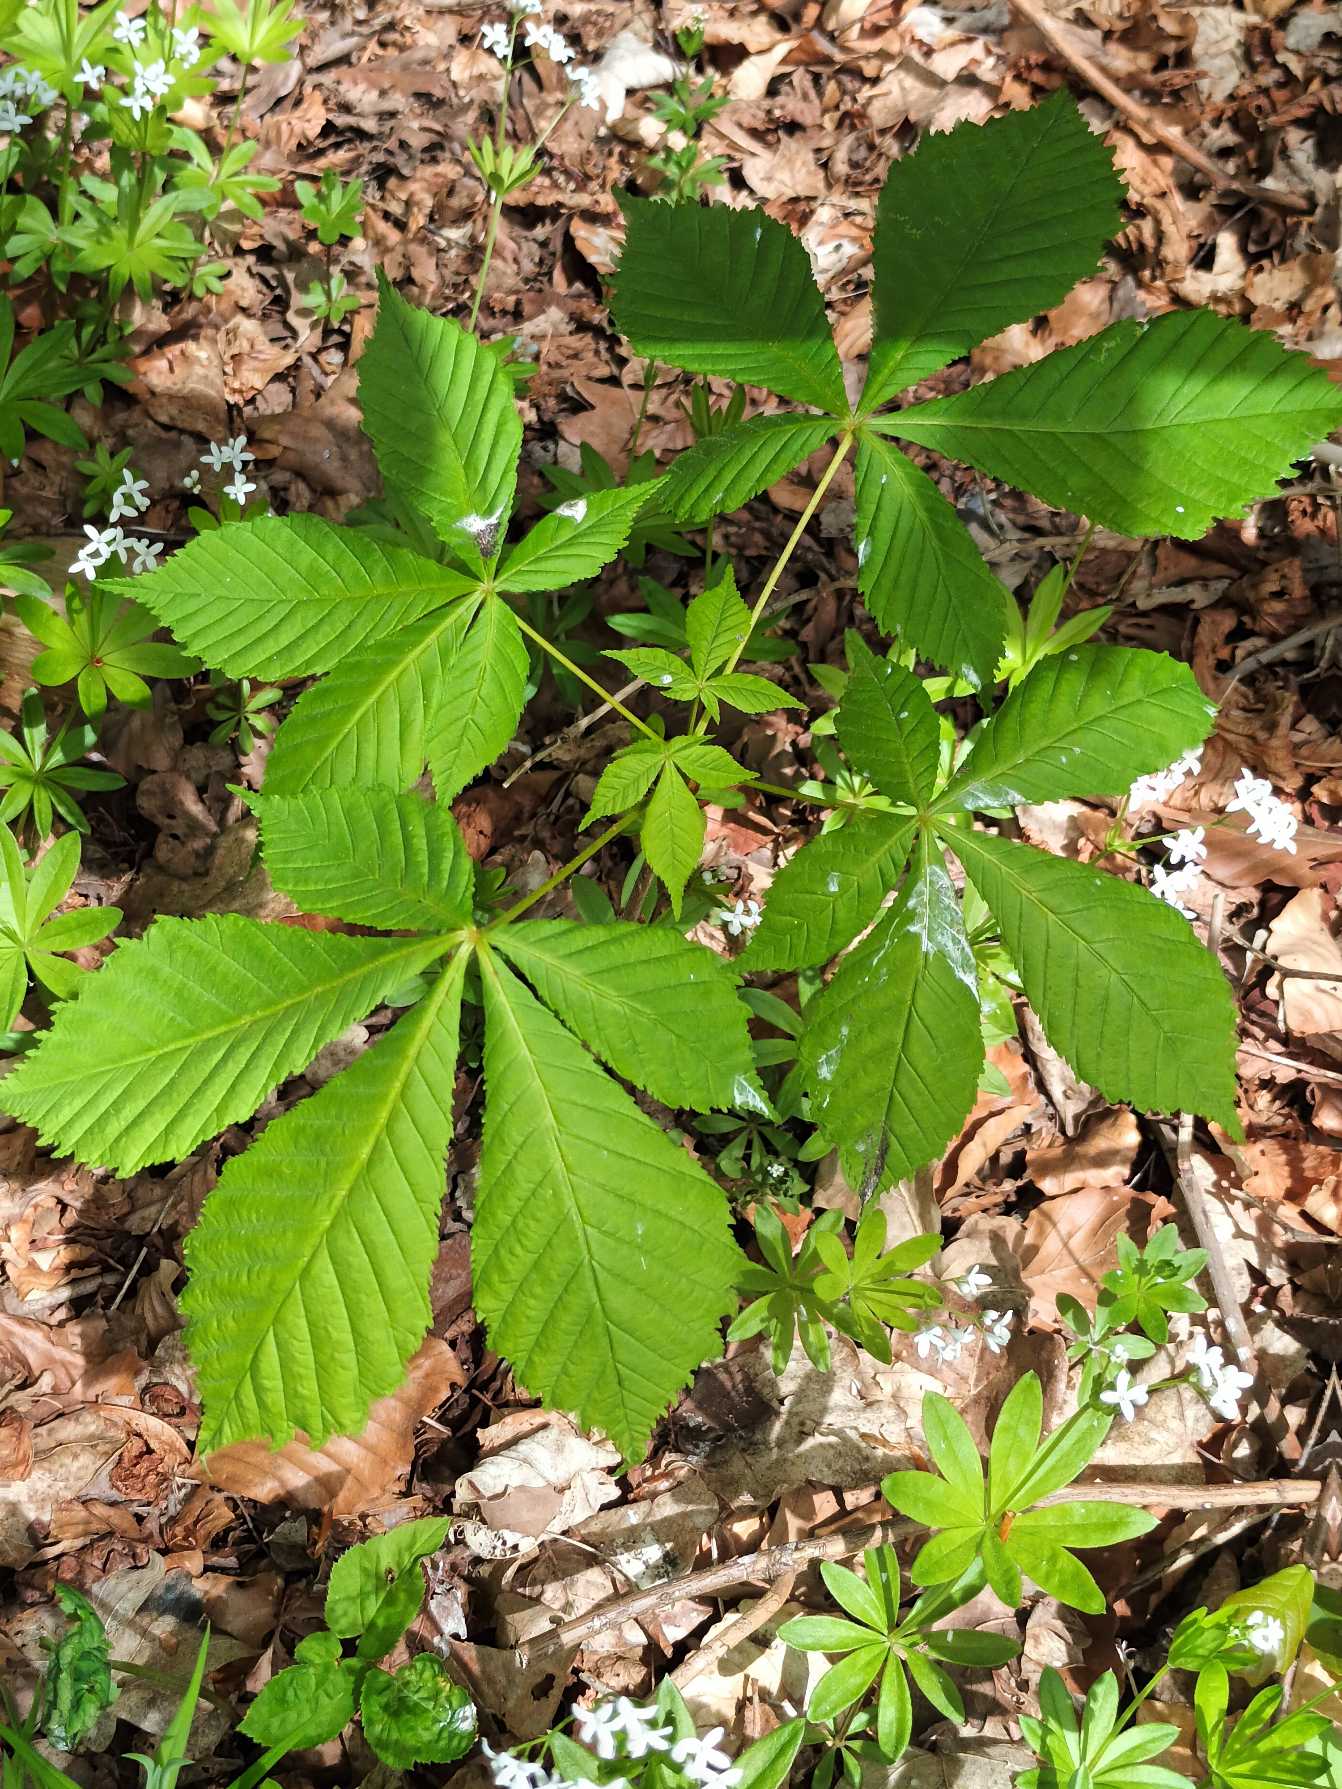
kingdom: Plantae
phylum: Tracheophyta
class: Magnoliopsida
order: Sapindales
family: Sapindaceae
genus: Aesculus
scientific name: Aesculus hippocastanum
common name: Hestekastanie
